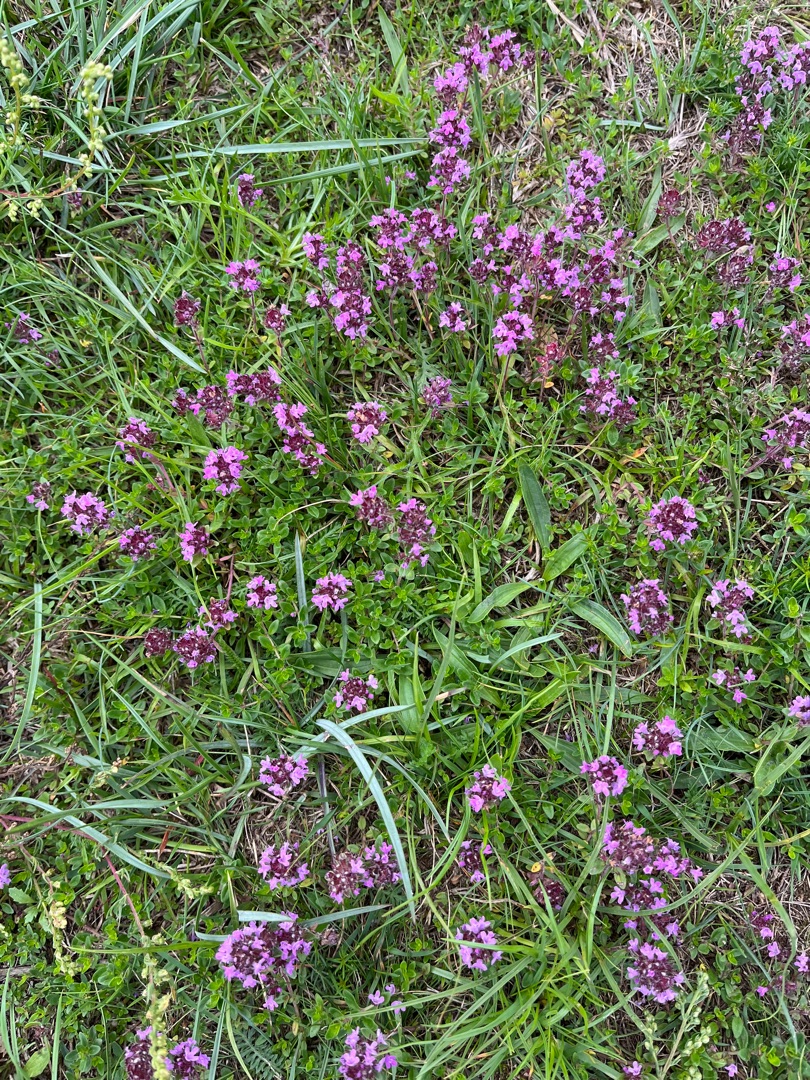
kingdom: Plantae
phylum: Tracheophyta
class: Magnoliopsida
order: Lamiales
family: Lamiaceae
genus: Thymus
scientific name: Thymus pulegioides
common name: Bredbladet timian
